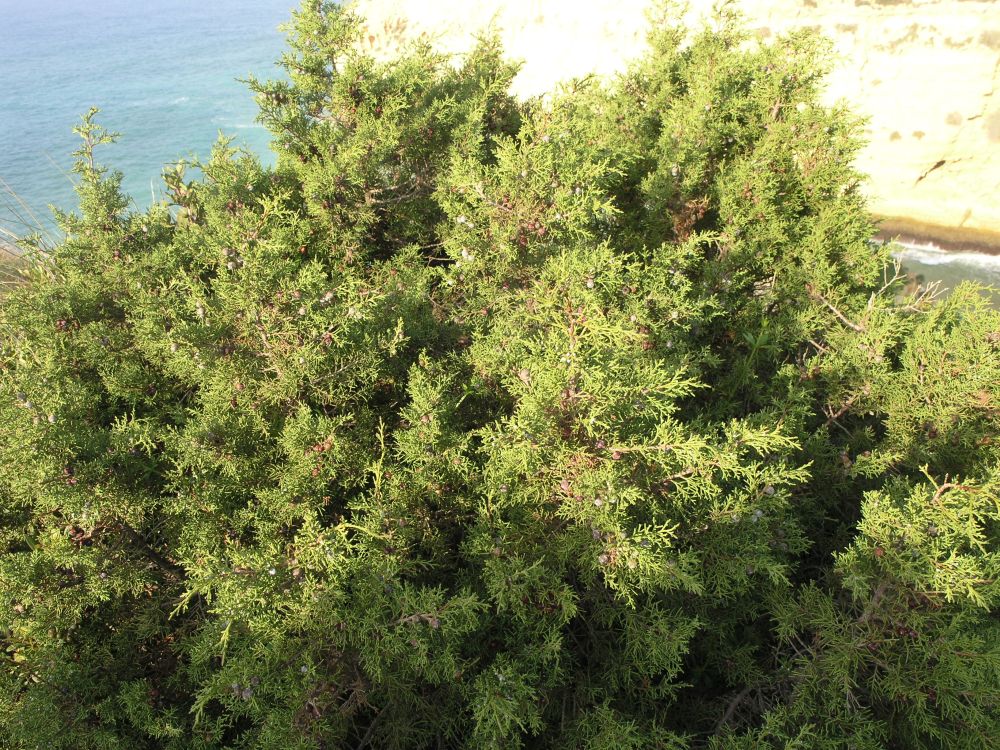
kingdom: Plantae
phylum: Tracheophyta
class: Pinopsida
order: Pinales
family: Cupressaceae
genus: Juniperus
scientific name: Juniperus phoenicea
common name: Phoenician juniper
